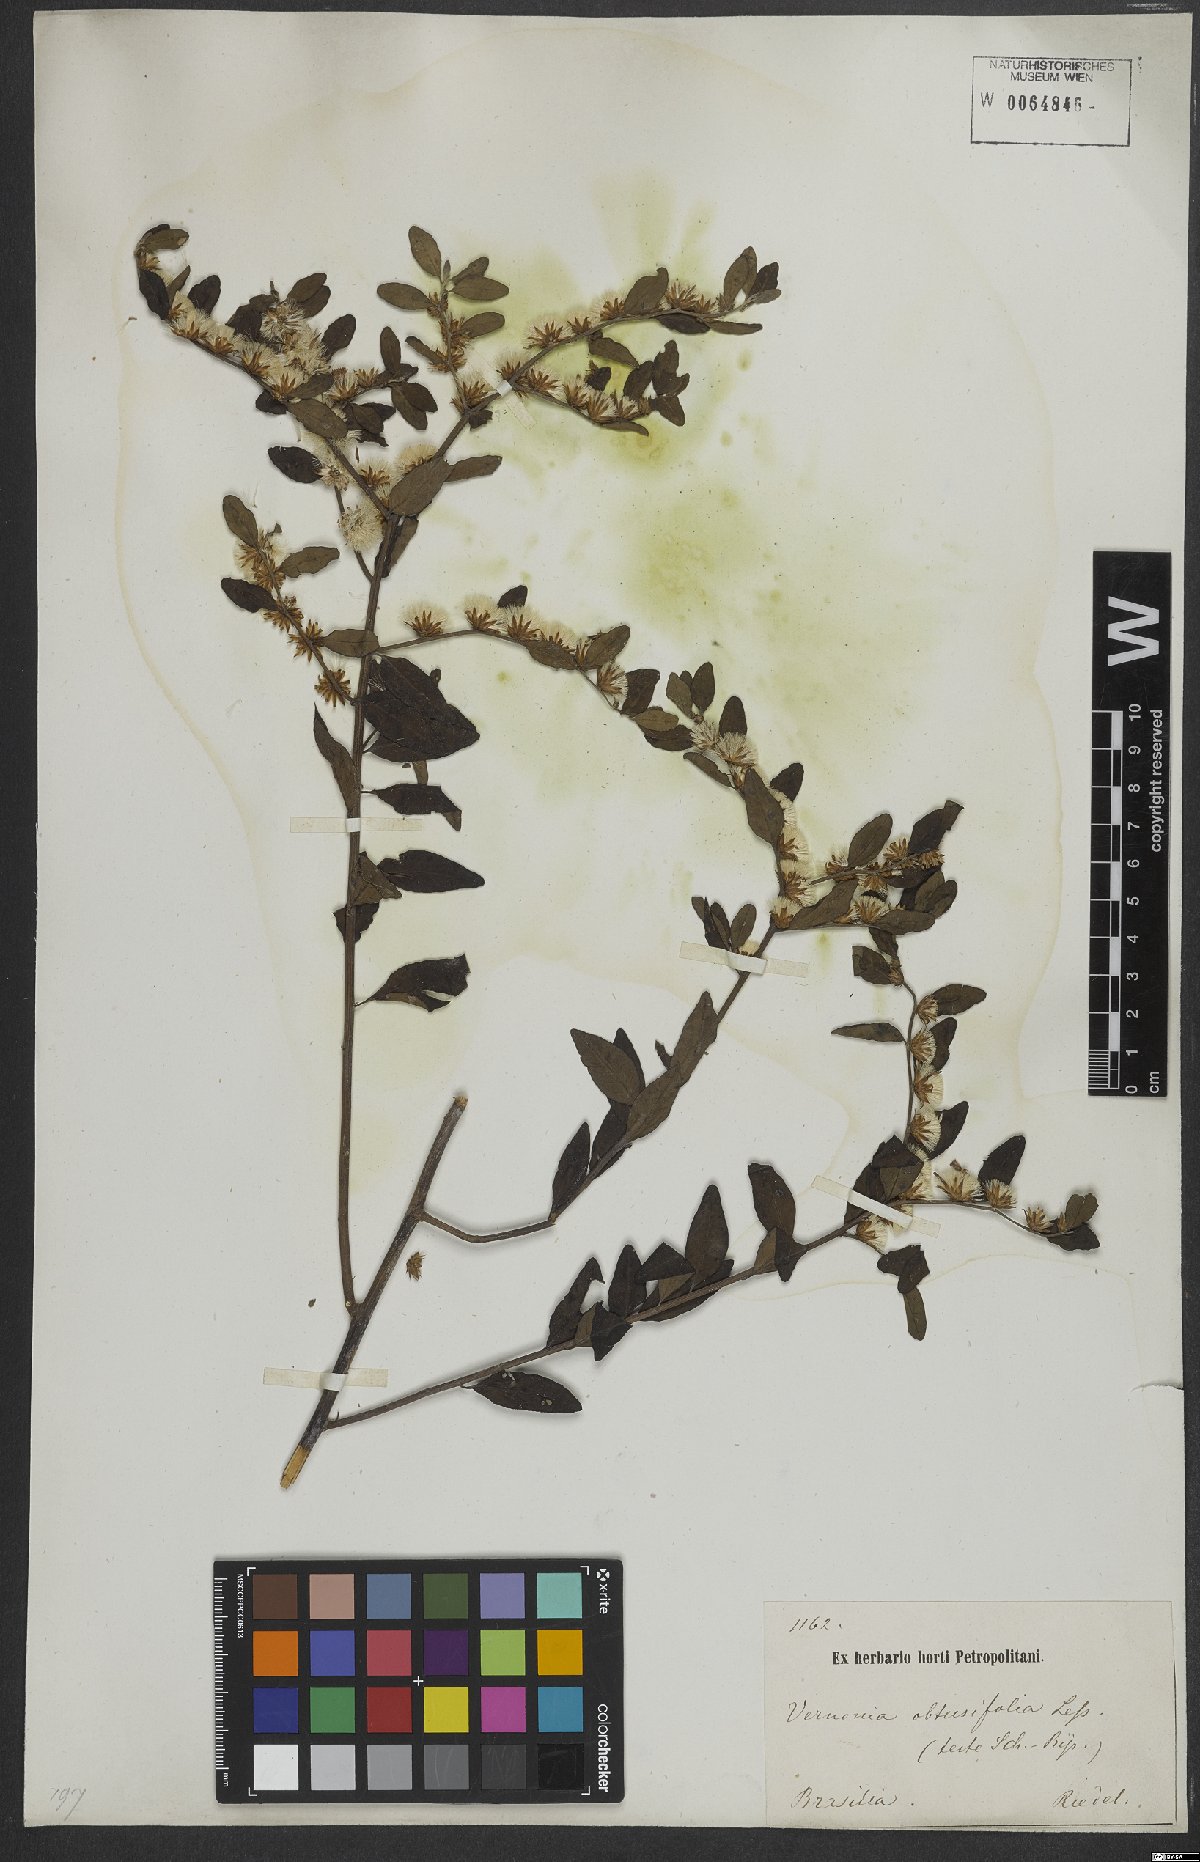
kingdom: Plantae
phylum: Tracheophyta
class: Magnoliopsida
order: Asterales
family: Asteraceae
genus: Lepidaploa
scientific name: Lepidaploa obtusifolia
